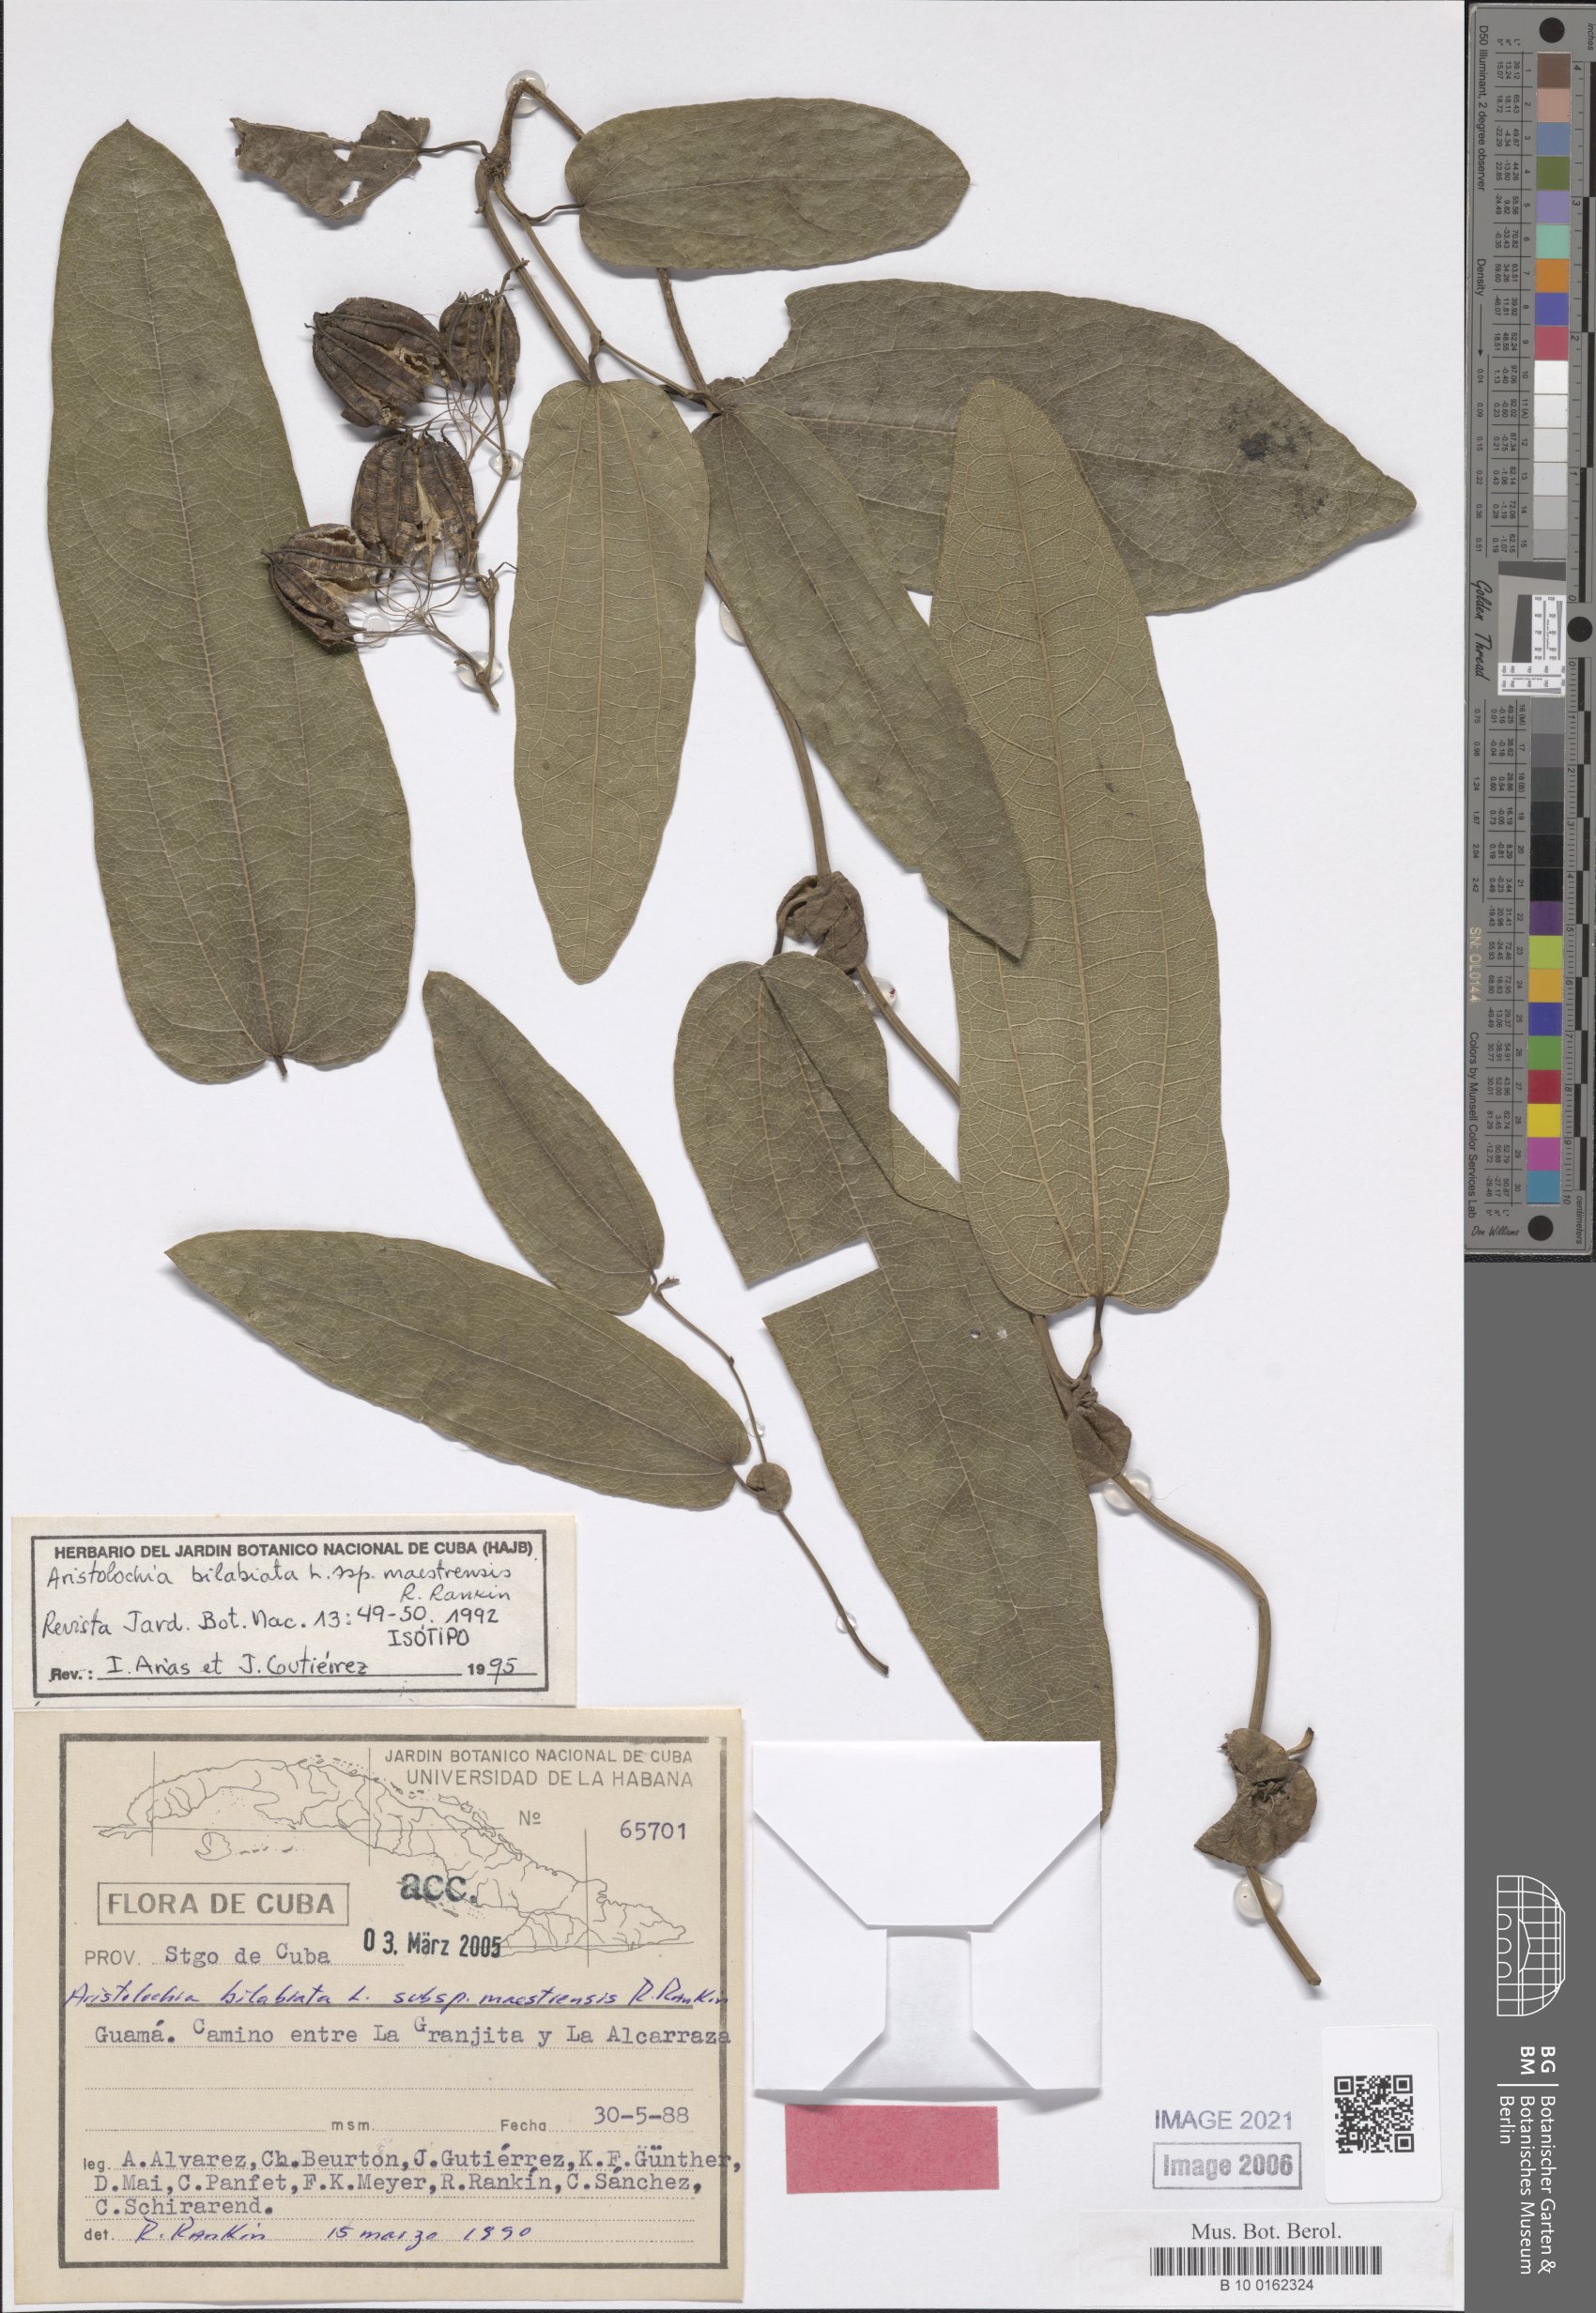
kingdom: Plantae
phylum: Tracheophyta
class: Magnoliopsida
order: Piperales
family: Aristolochiaceae
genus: Aristolochia
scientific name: Aristolochia oblongata
